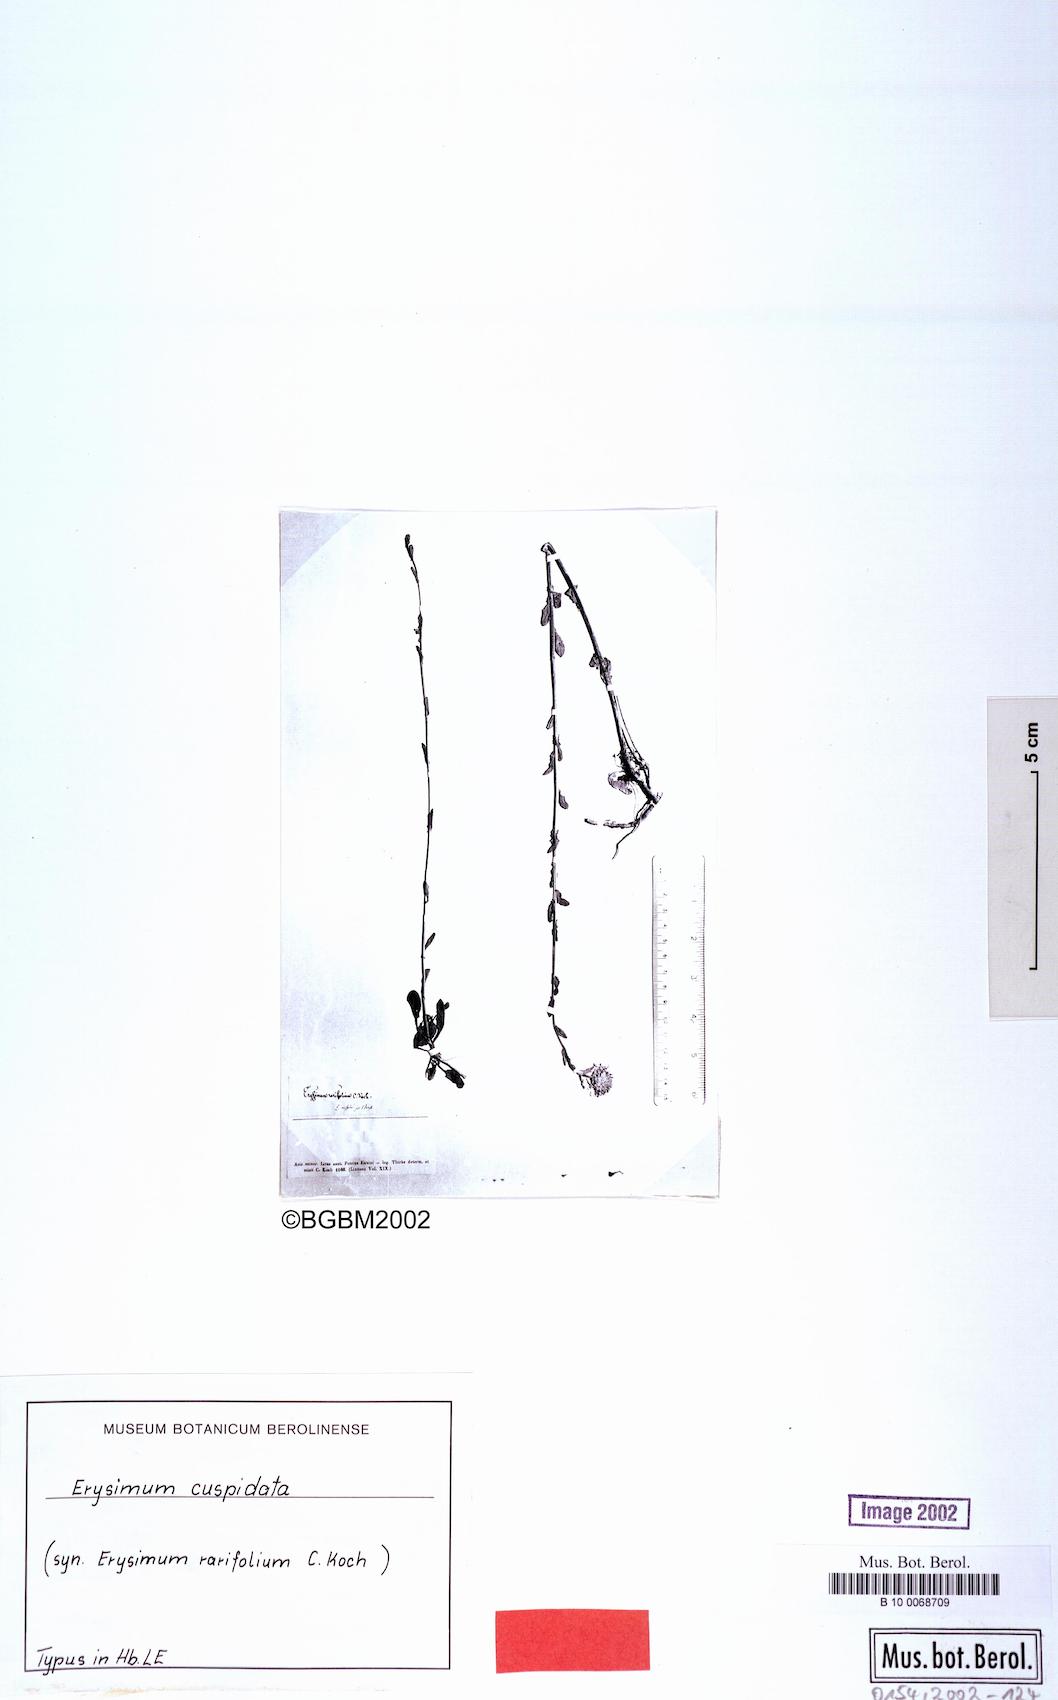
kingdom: Plantae
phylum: Tracheophyta
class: Magnoliopsida
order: Brassicales
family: Brassicaceae
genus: Erysimum
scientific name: Erysimum cuspidatum
